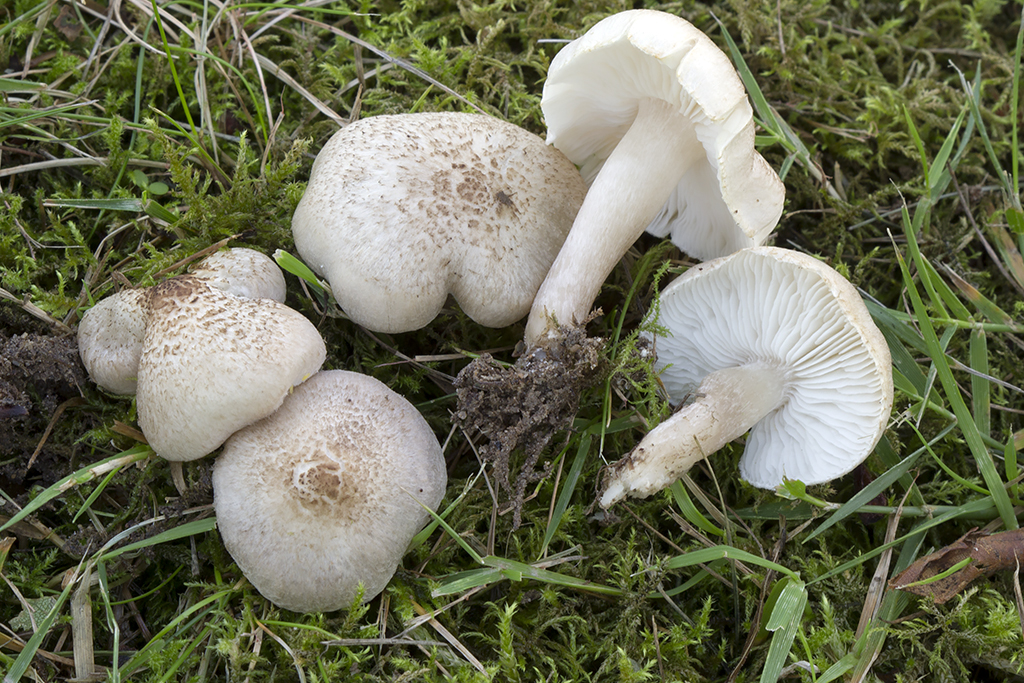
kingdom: Fungi
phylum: Basidiomycota
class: Agaricomycetes
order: Agaricales
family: Tricholomataceae
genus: Tricholoma
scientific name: Tricholoma scalpturatum
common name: gulplettet ridderhat
